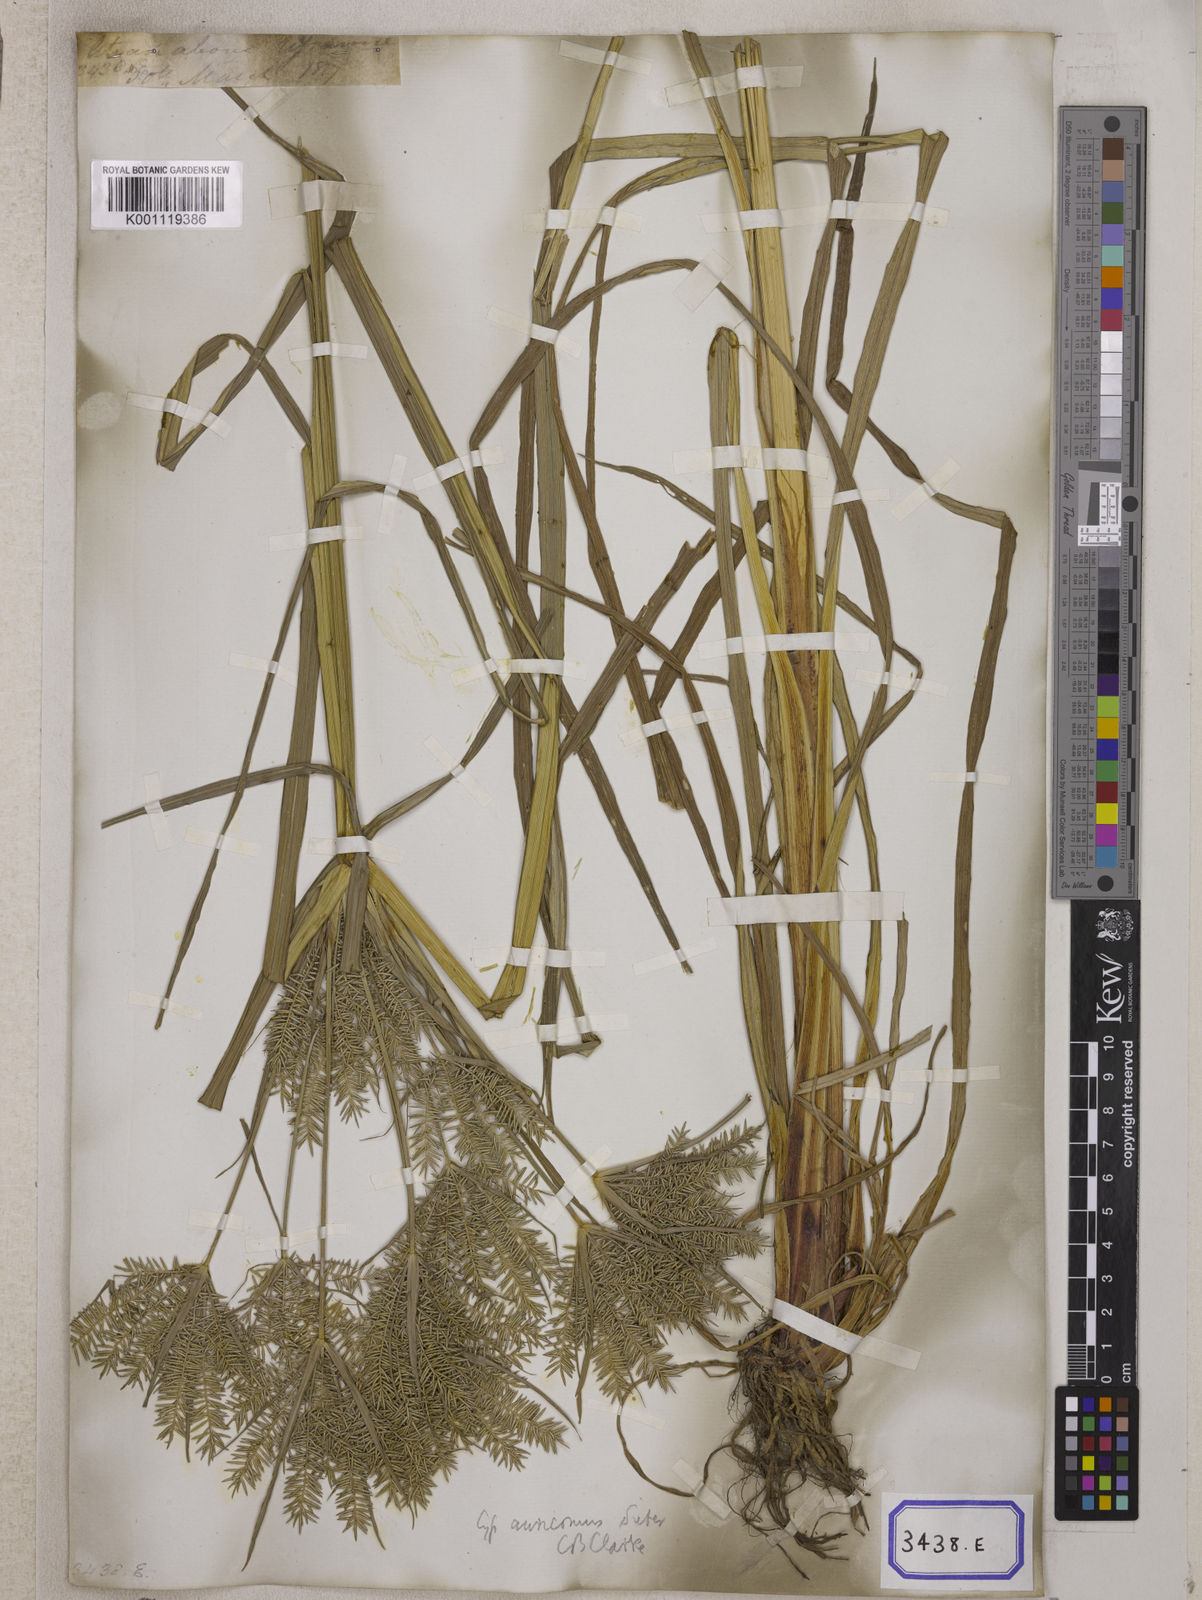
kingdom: Plantae
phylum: Tracheophyta
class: Liliopsida
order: Poales
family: Cyperaceae
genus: Mariscus
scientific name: Mariscus
